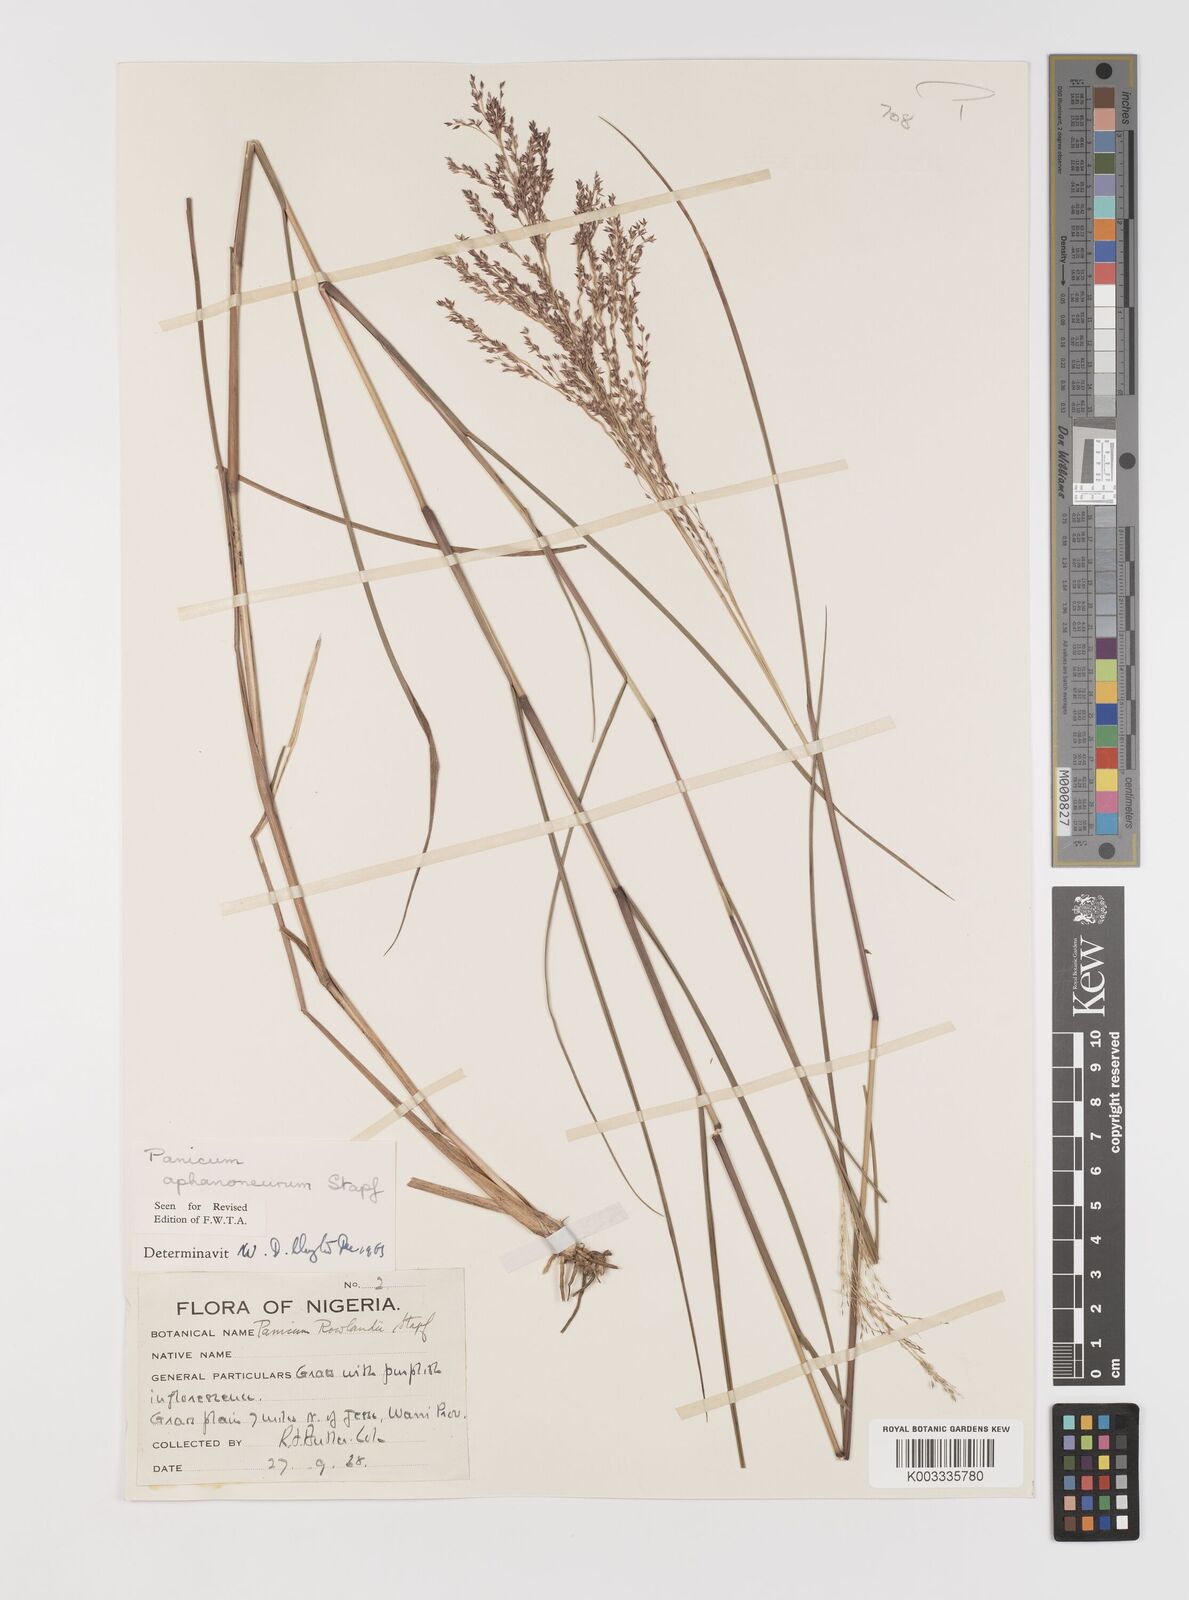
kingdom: Plantae
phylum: Tracheophyta
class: Liliopsida
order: Poales
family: Poaceae
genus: Panicum
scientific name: Panicum fluviicola
